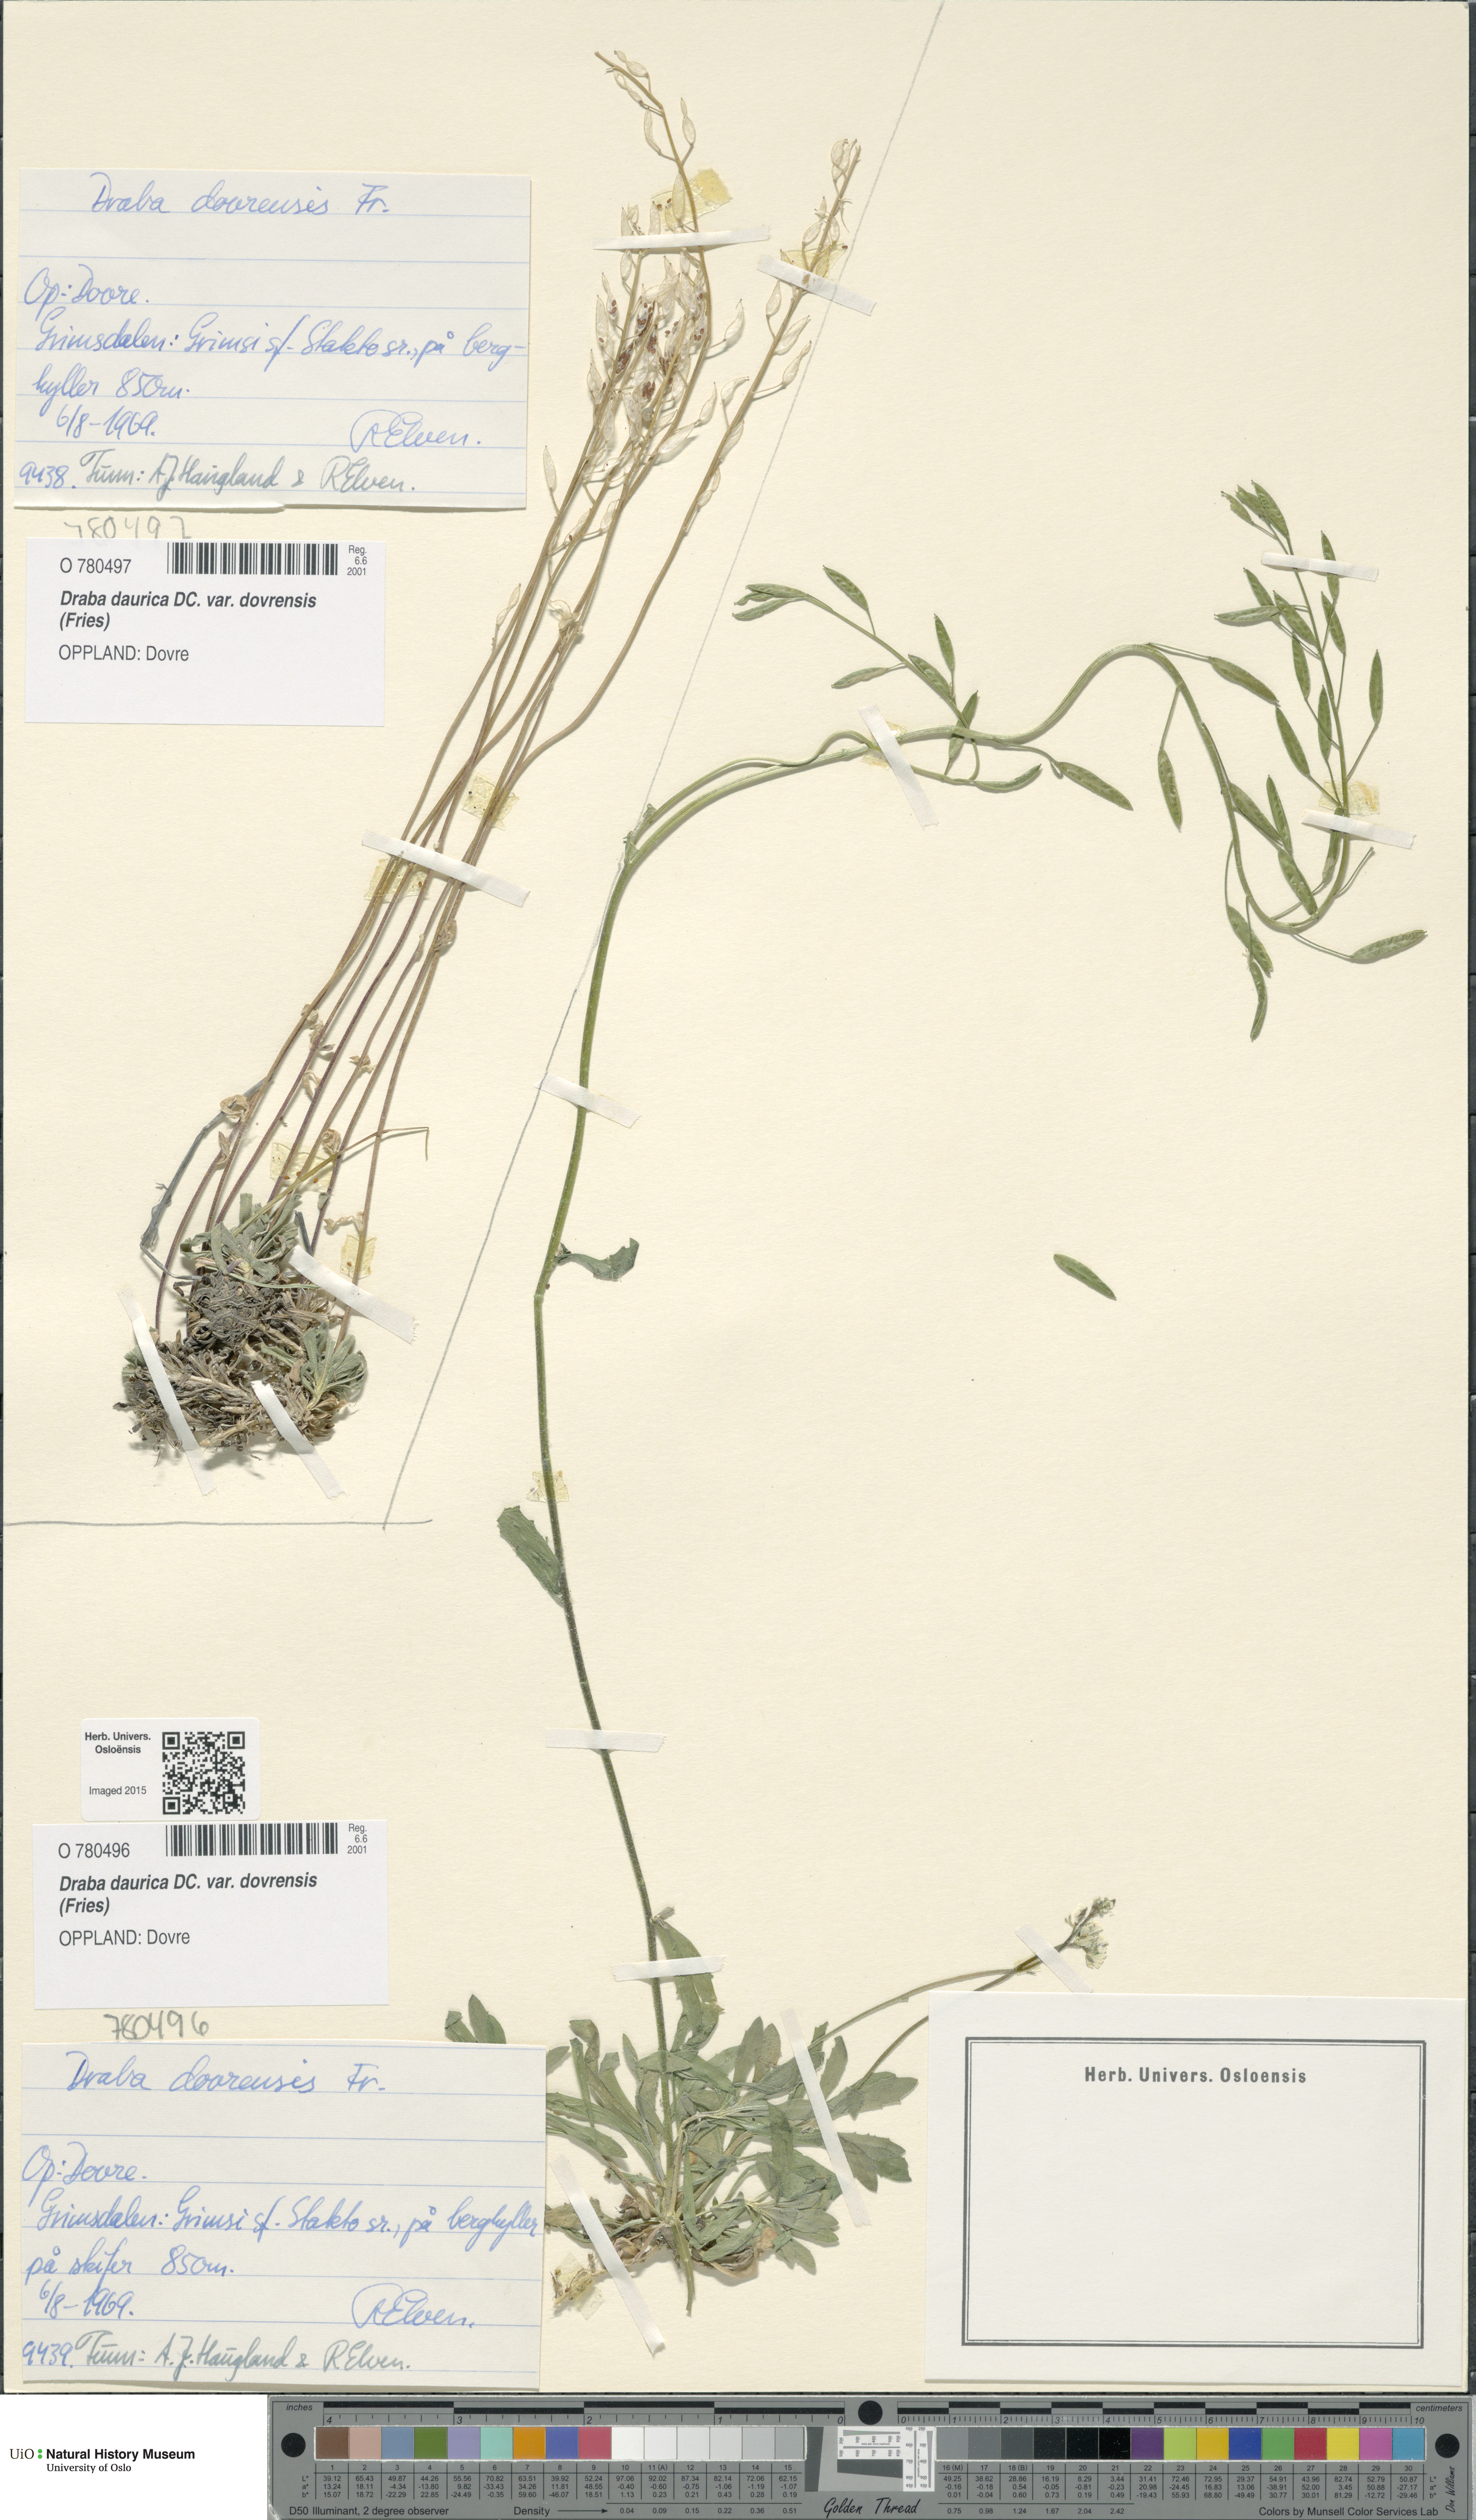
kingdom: Plantae
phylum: Tracheophyta
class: Magnoliopsida
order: Brassicales
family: Brassicaceae
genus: Draba
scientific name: Draba glabella
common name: Glaucous draba
